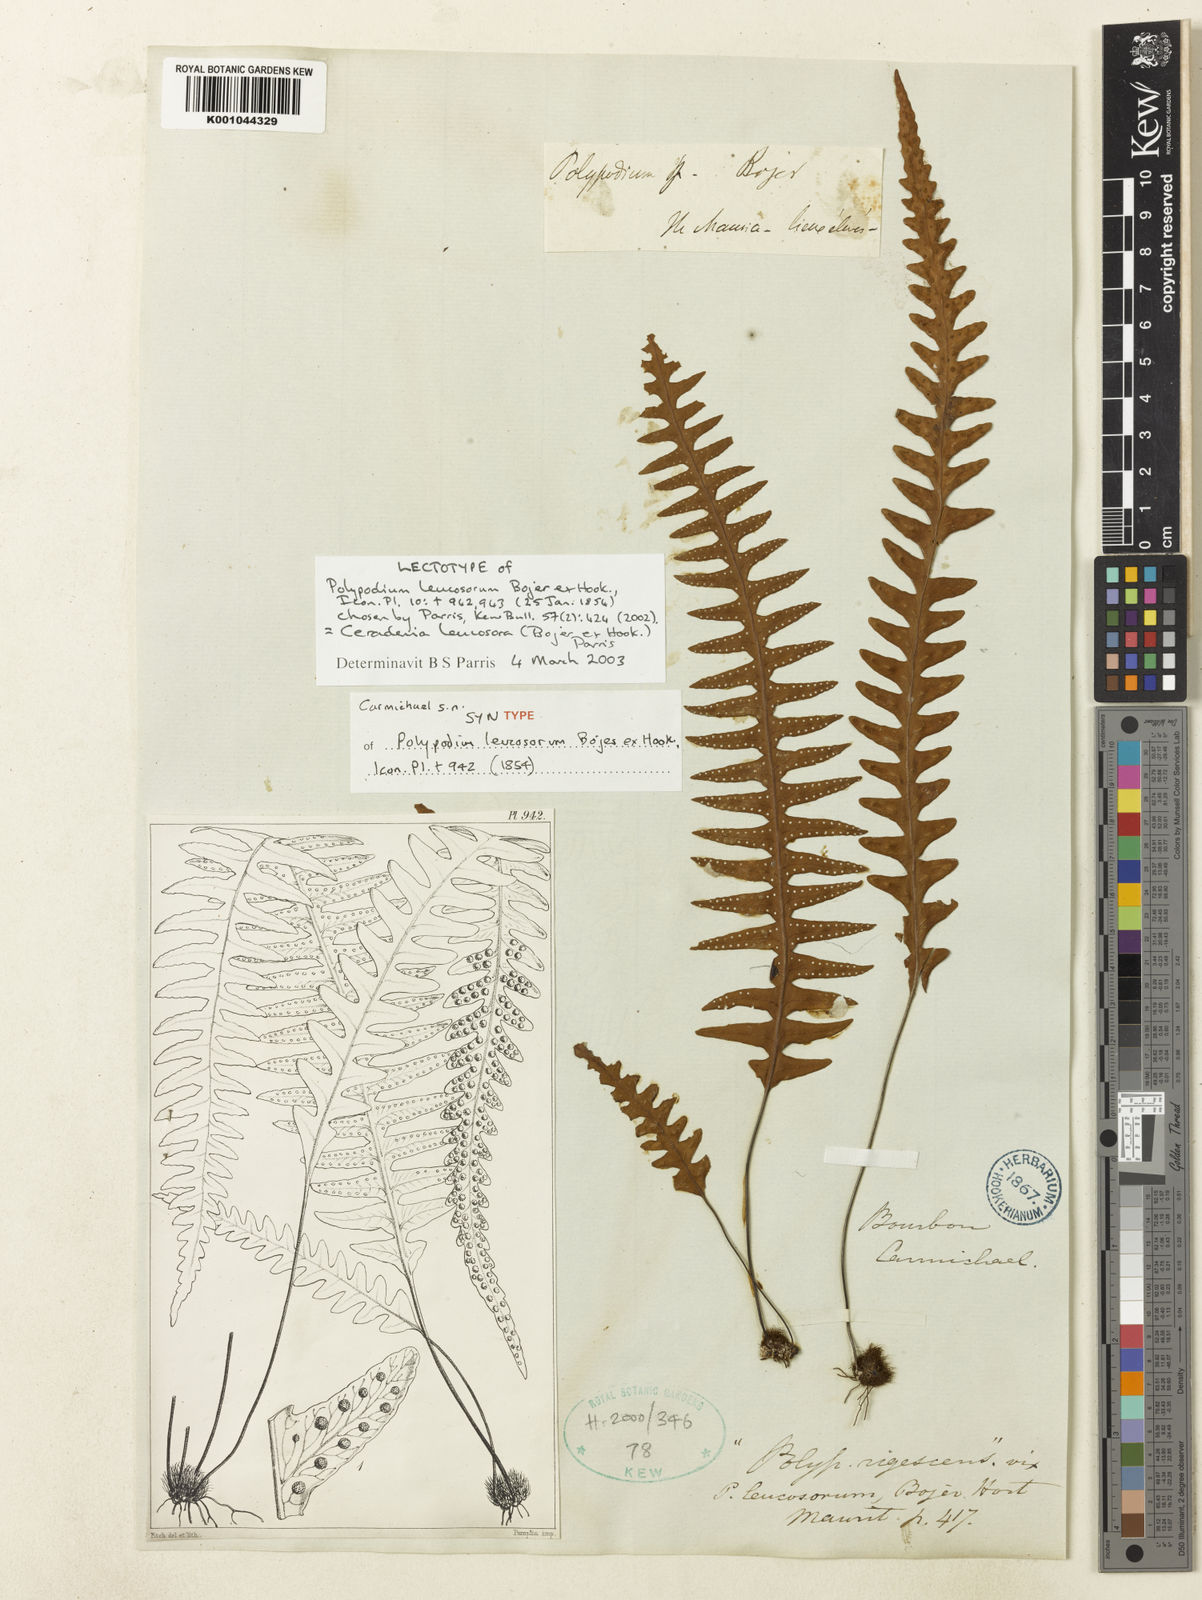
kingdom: Plantae
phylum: Tracheophyta
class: Polypodiopsida
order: Polypodiales
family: Polypodiaceae
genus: Ceradenia
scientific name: Ceradenia leucosora
